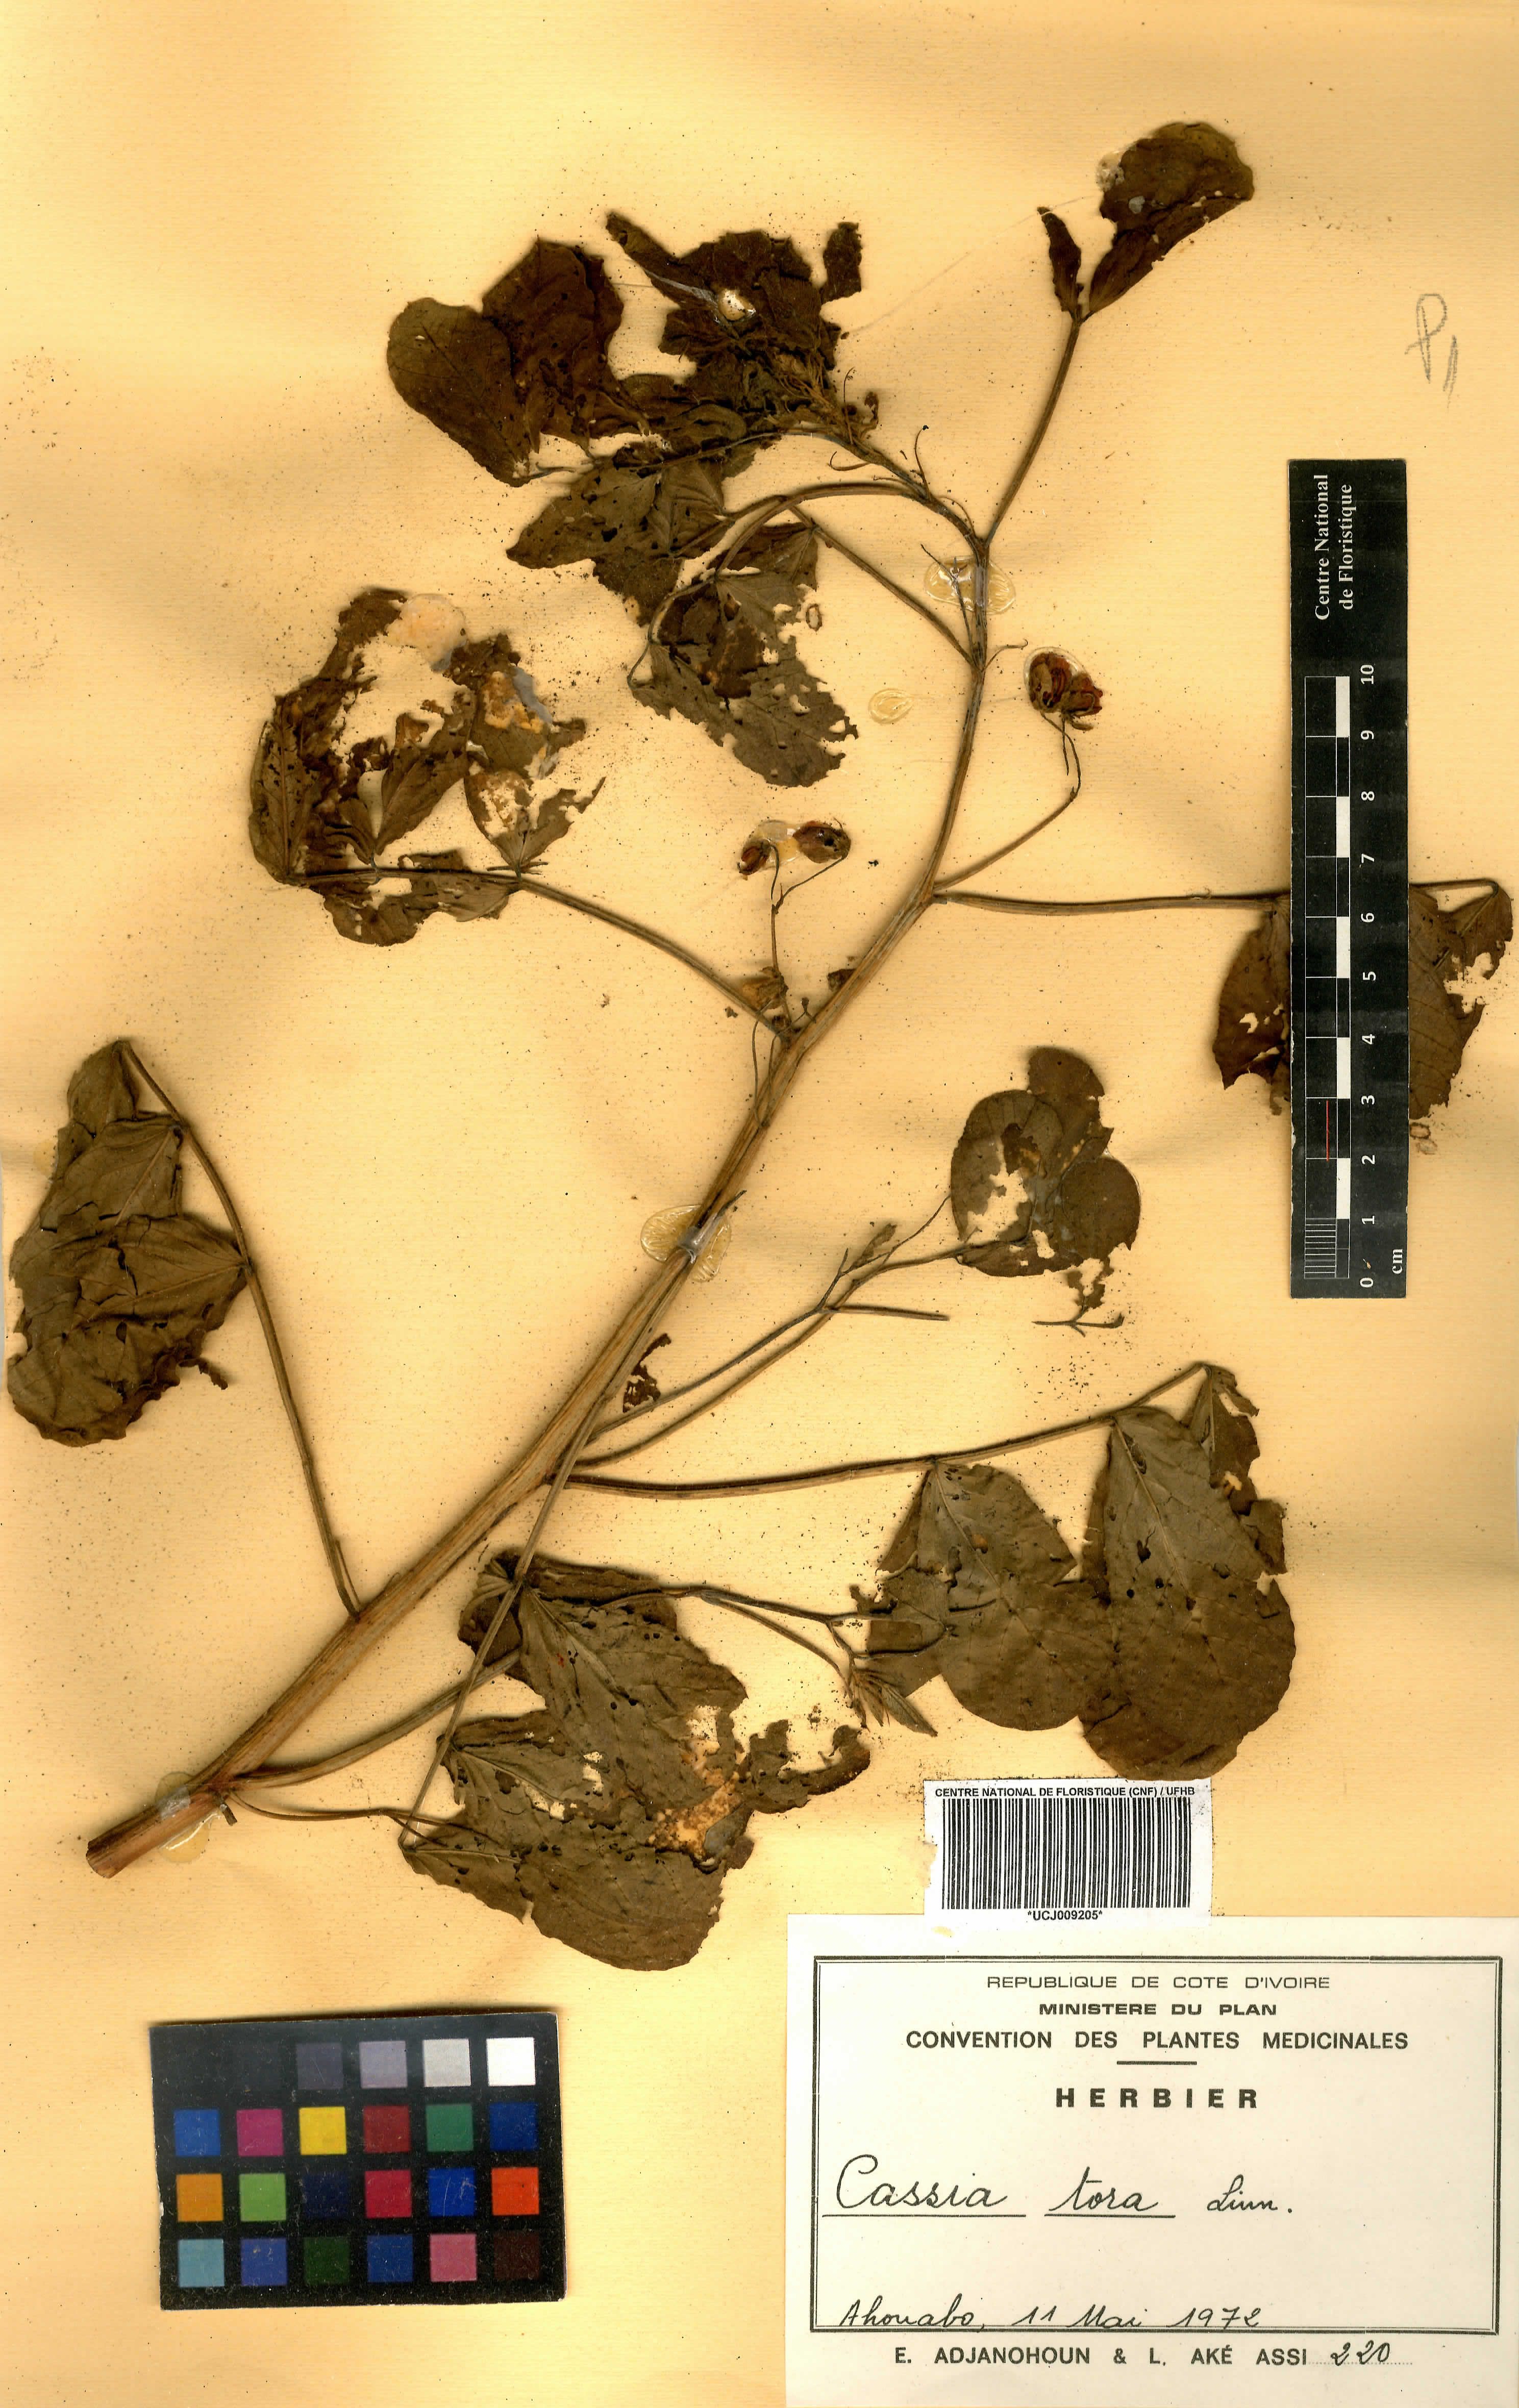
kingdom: Plantae
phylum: Tracheophyta
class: Magnoliopsida
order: Fabales
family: Fabaceae
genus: Senna
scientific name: Senna tora
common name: Sickle senna
